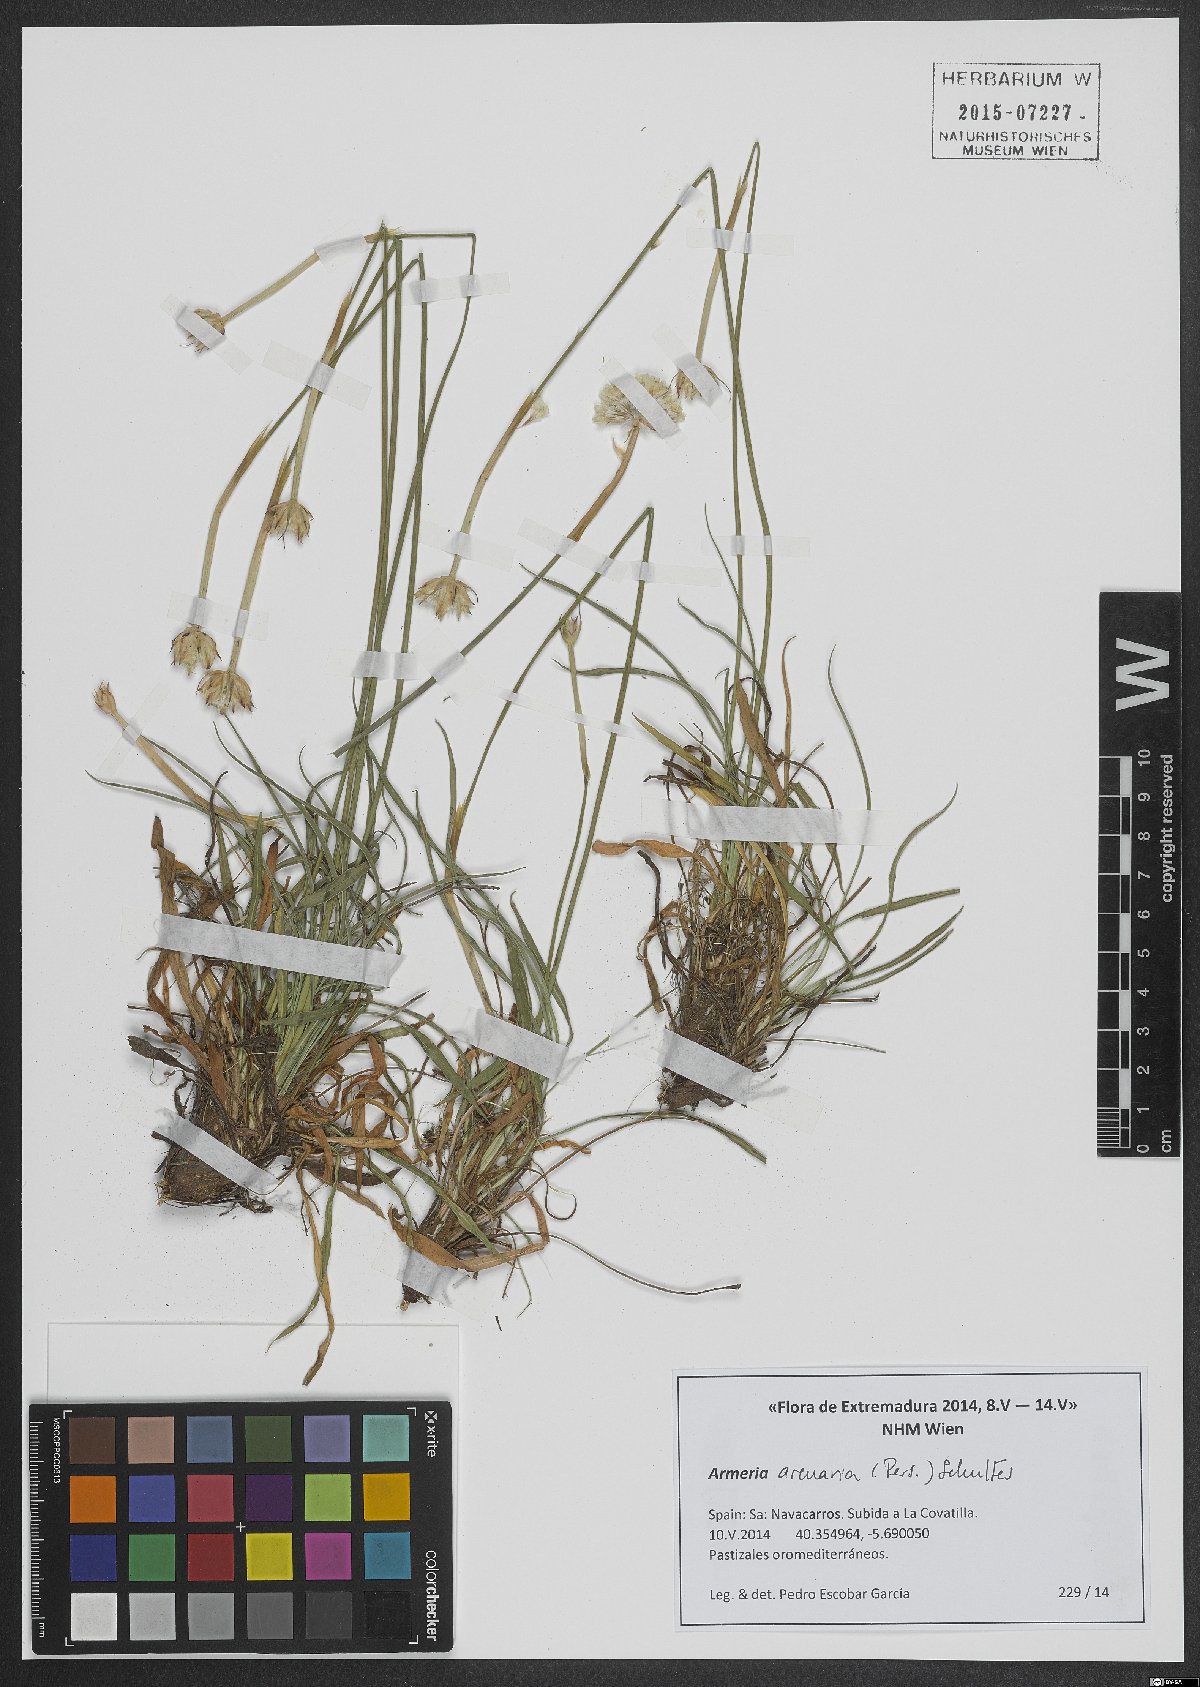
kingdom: Plantae
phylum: Tracheophyta
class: Magnoliopsida
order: Caryophyllales
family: Plumbaginaceae
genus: Armeria
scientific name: Armeria arenaria
